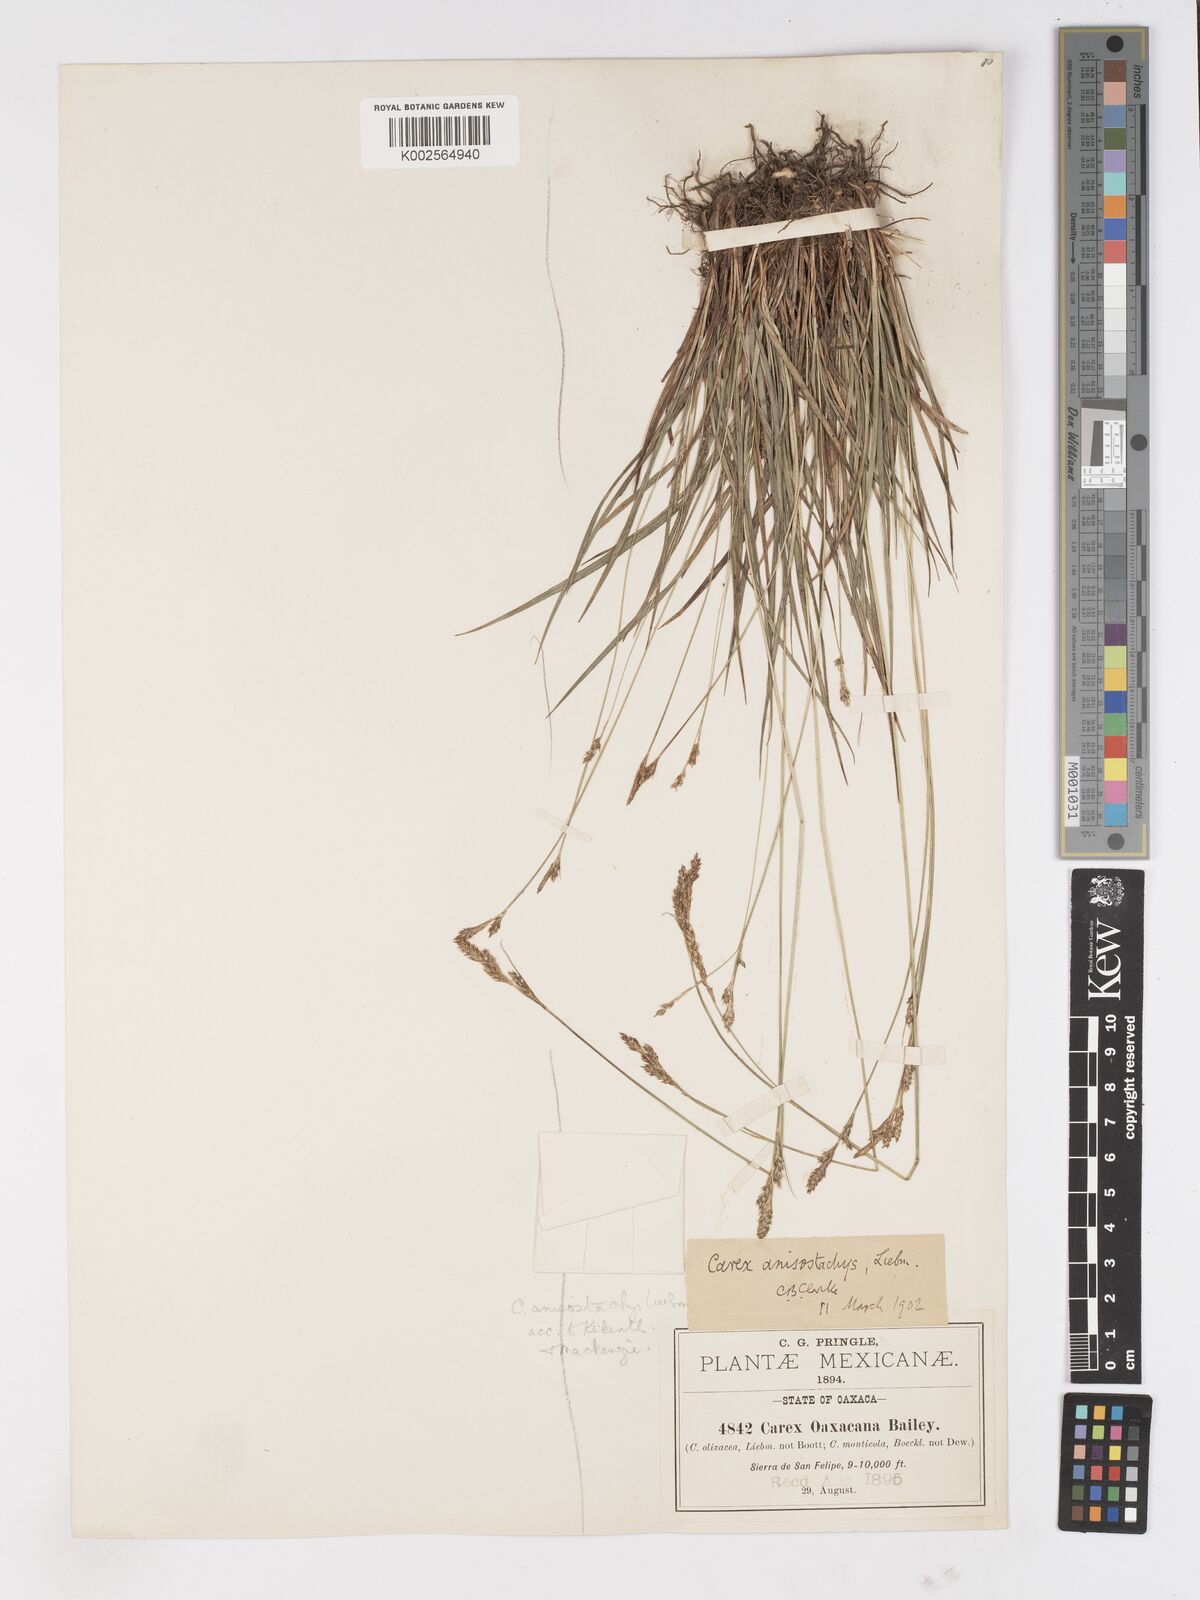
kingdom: Plantae
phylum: Tracheophyta
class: Liliopsida
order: Poales
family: Cyperaceae
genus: Carex
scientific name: Carex anisostachys
